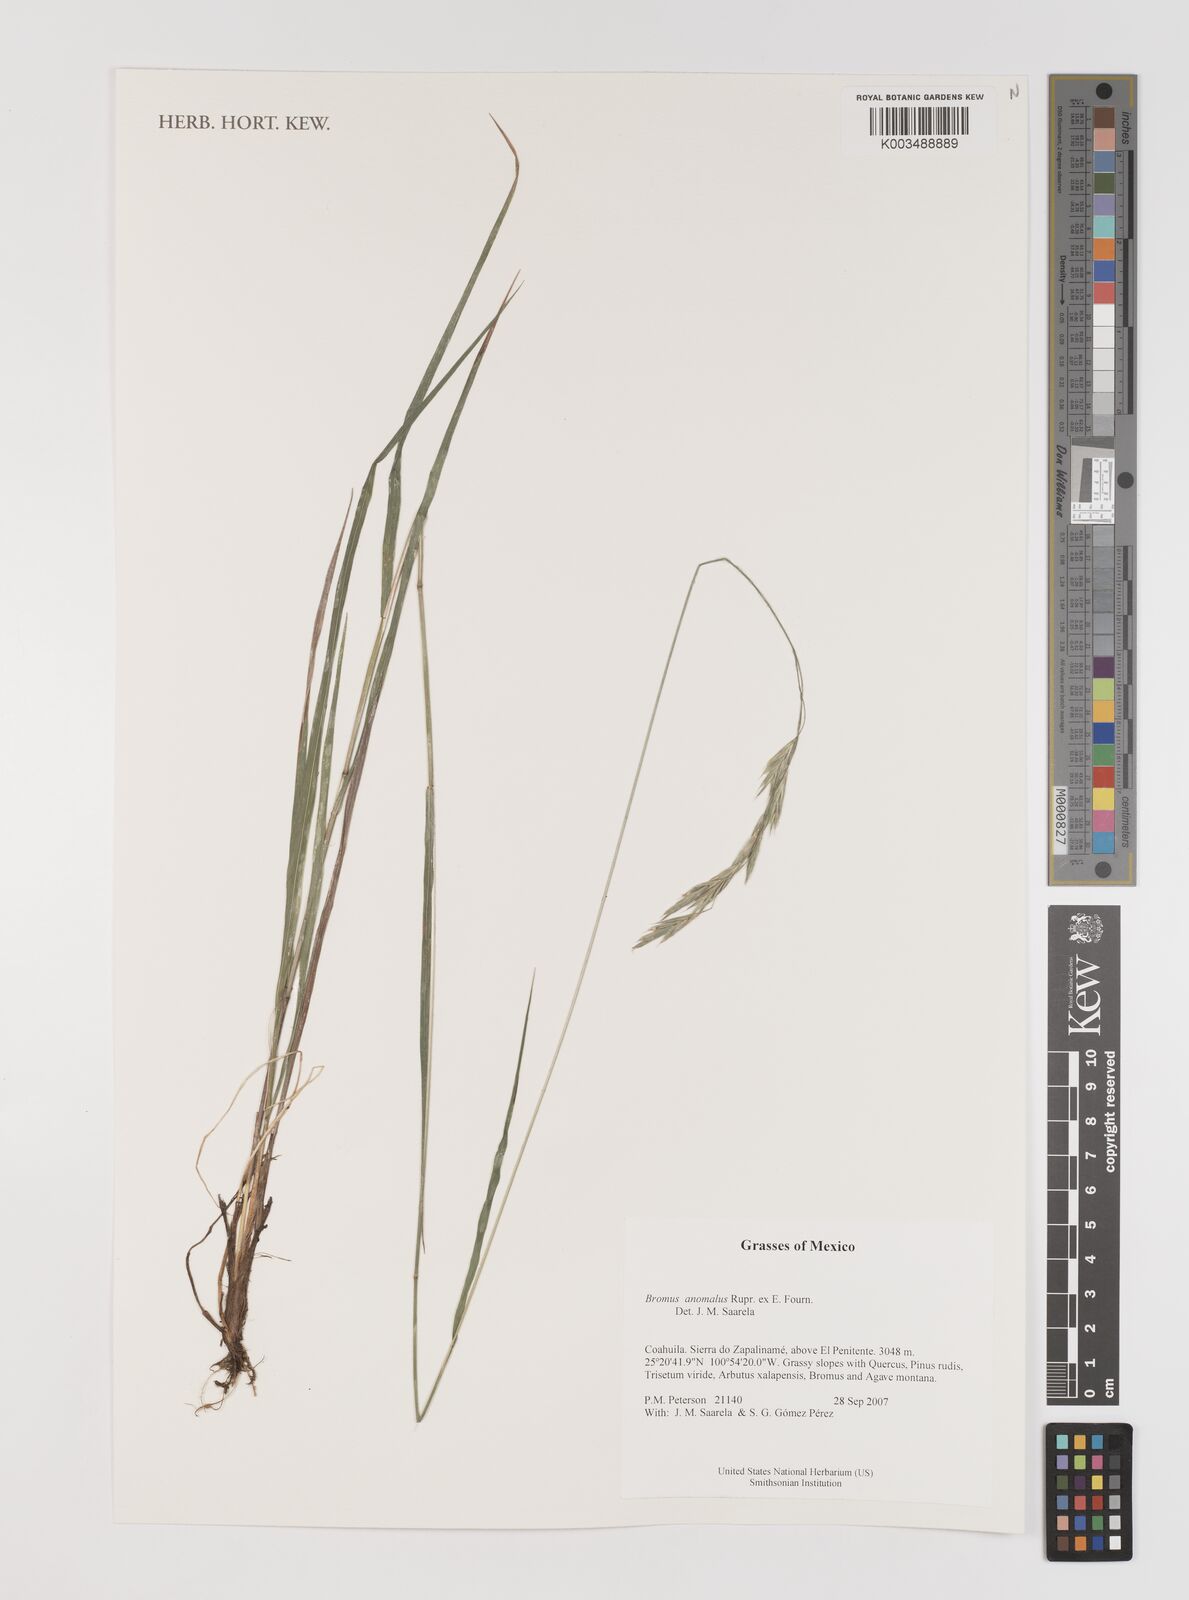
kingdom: Plantae
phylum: Tracheophyta
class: Liliopsida
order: Poales
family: Poaceae
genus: Bromus
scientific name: Bromus anomalus
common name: Nodding brome
